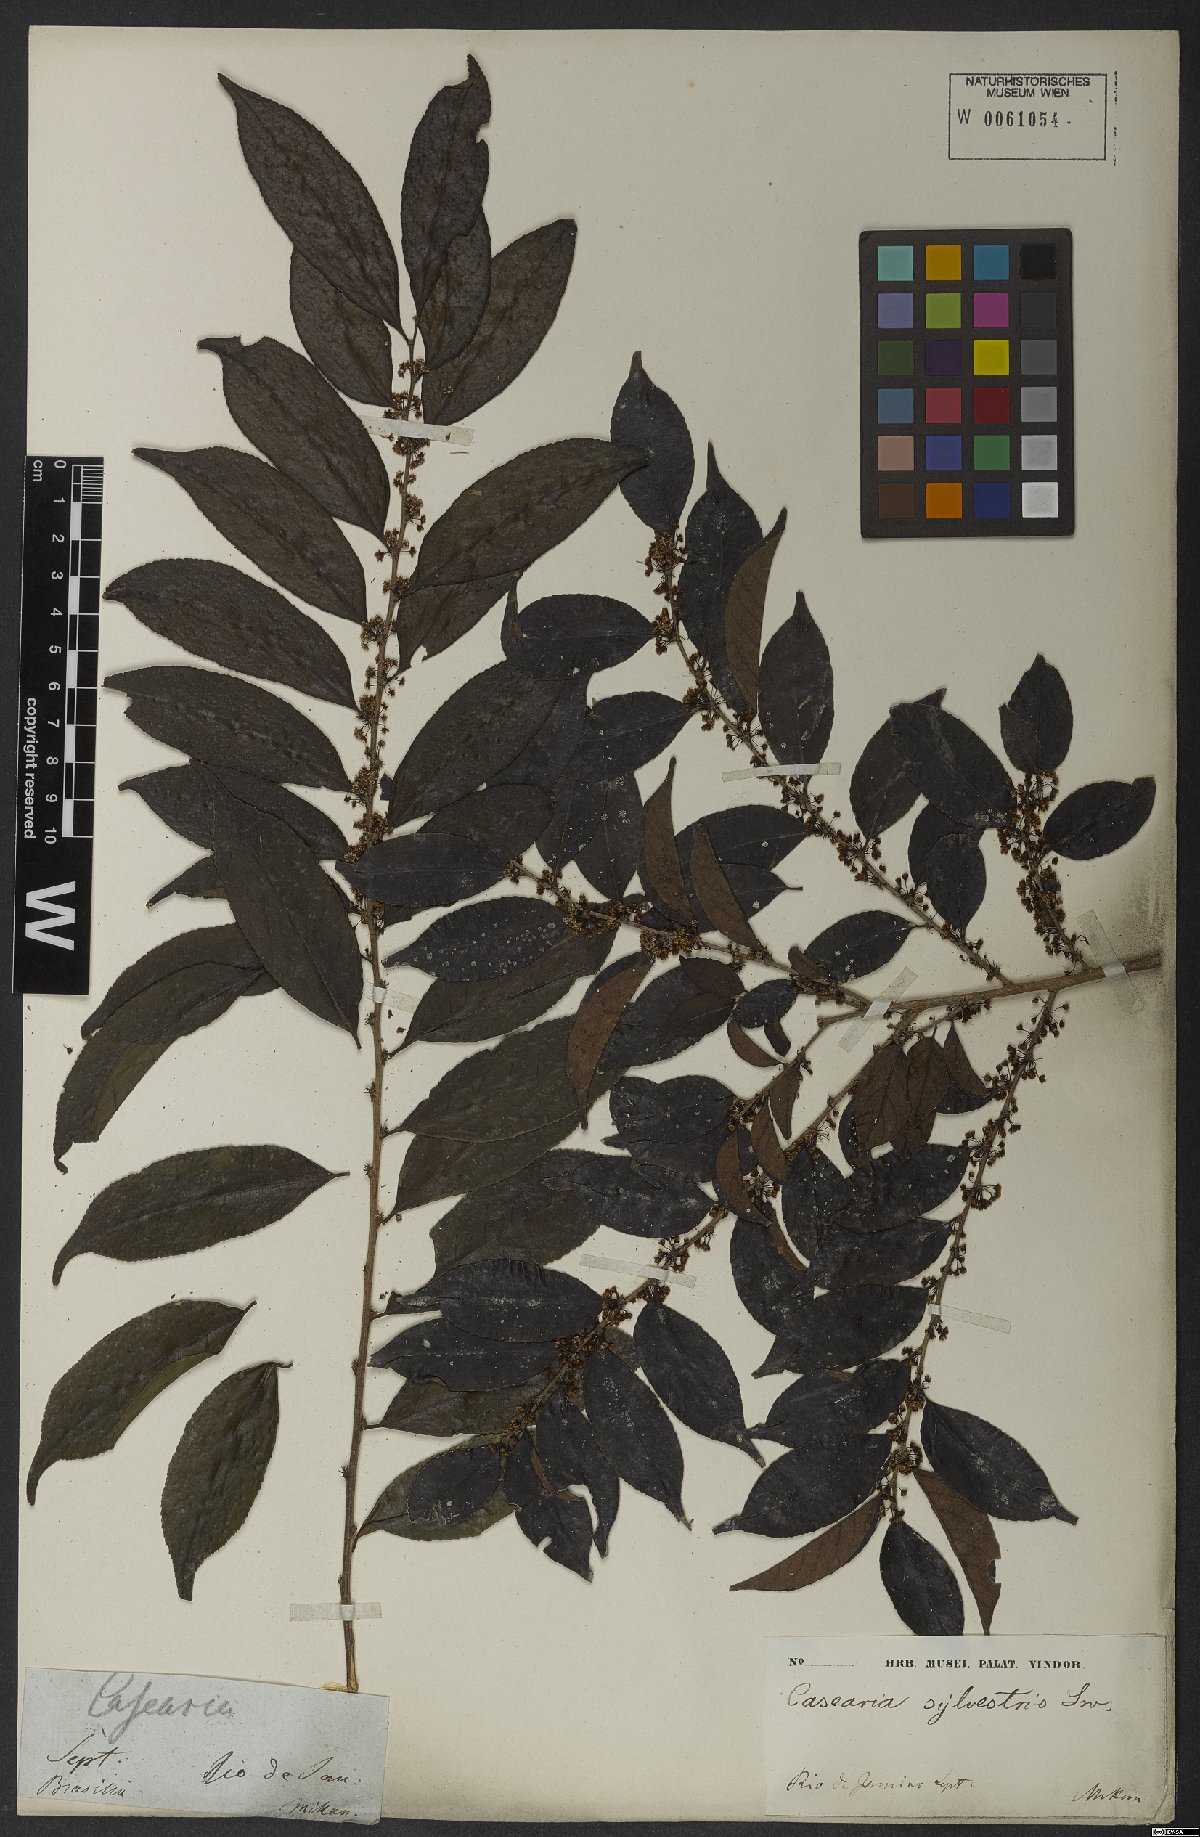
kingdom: Plantae
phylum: Tracheophyta
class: Magnoliopsida
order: Malpighiales
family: Salicaceae
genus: Casearia
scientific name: Casearia sylvestris
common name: Wild sage
